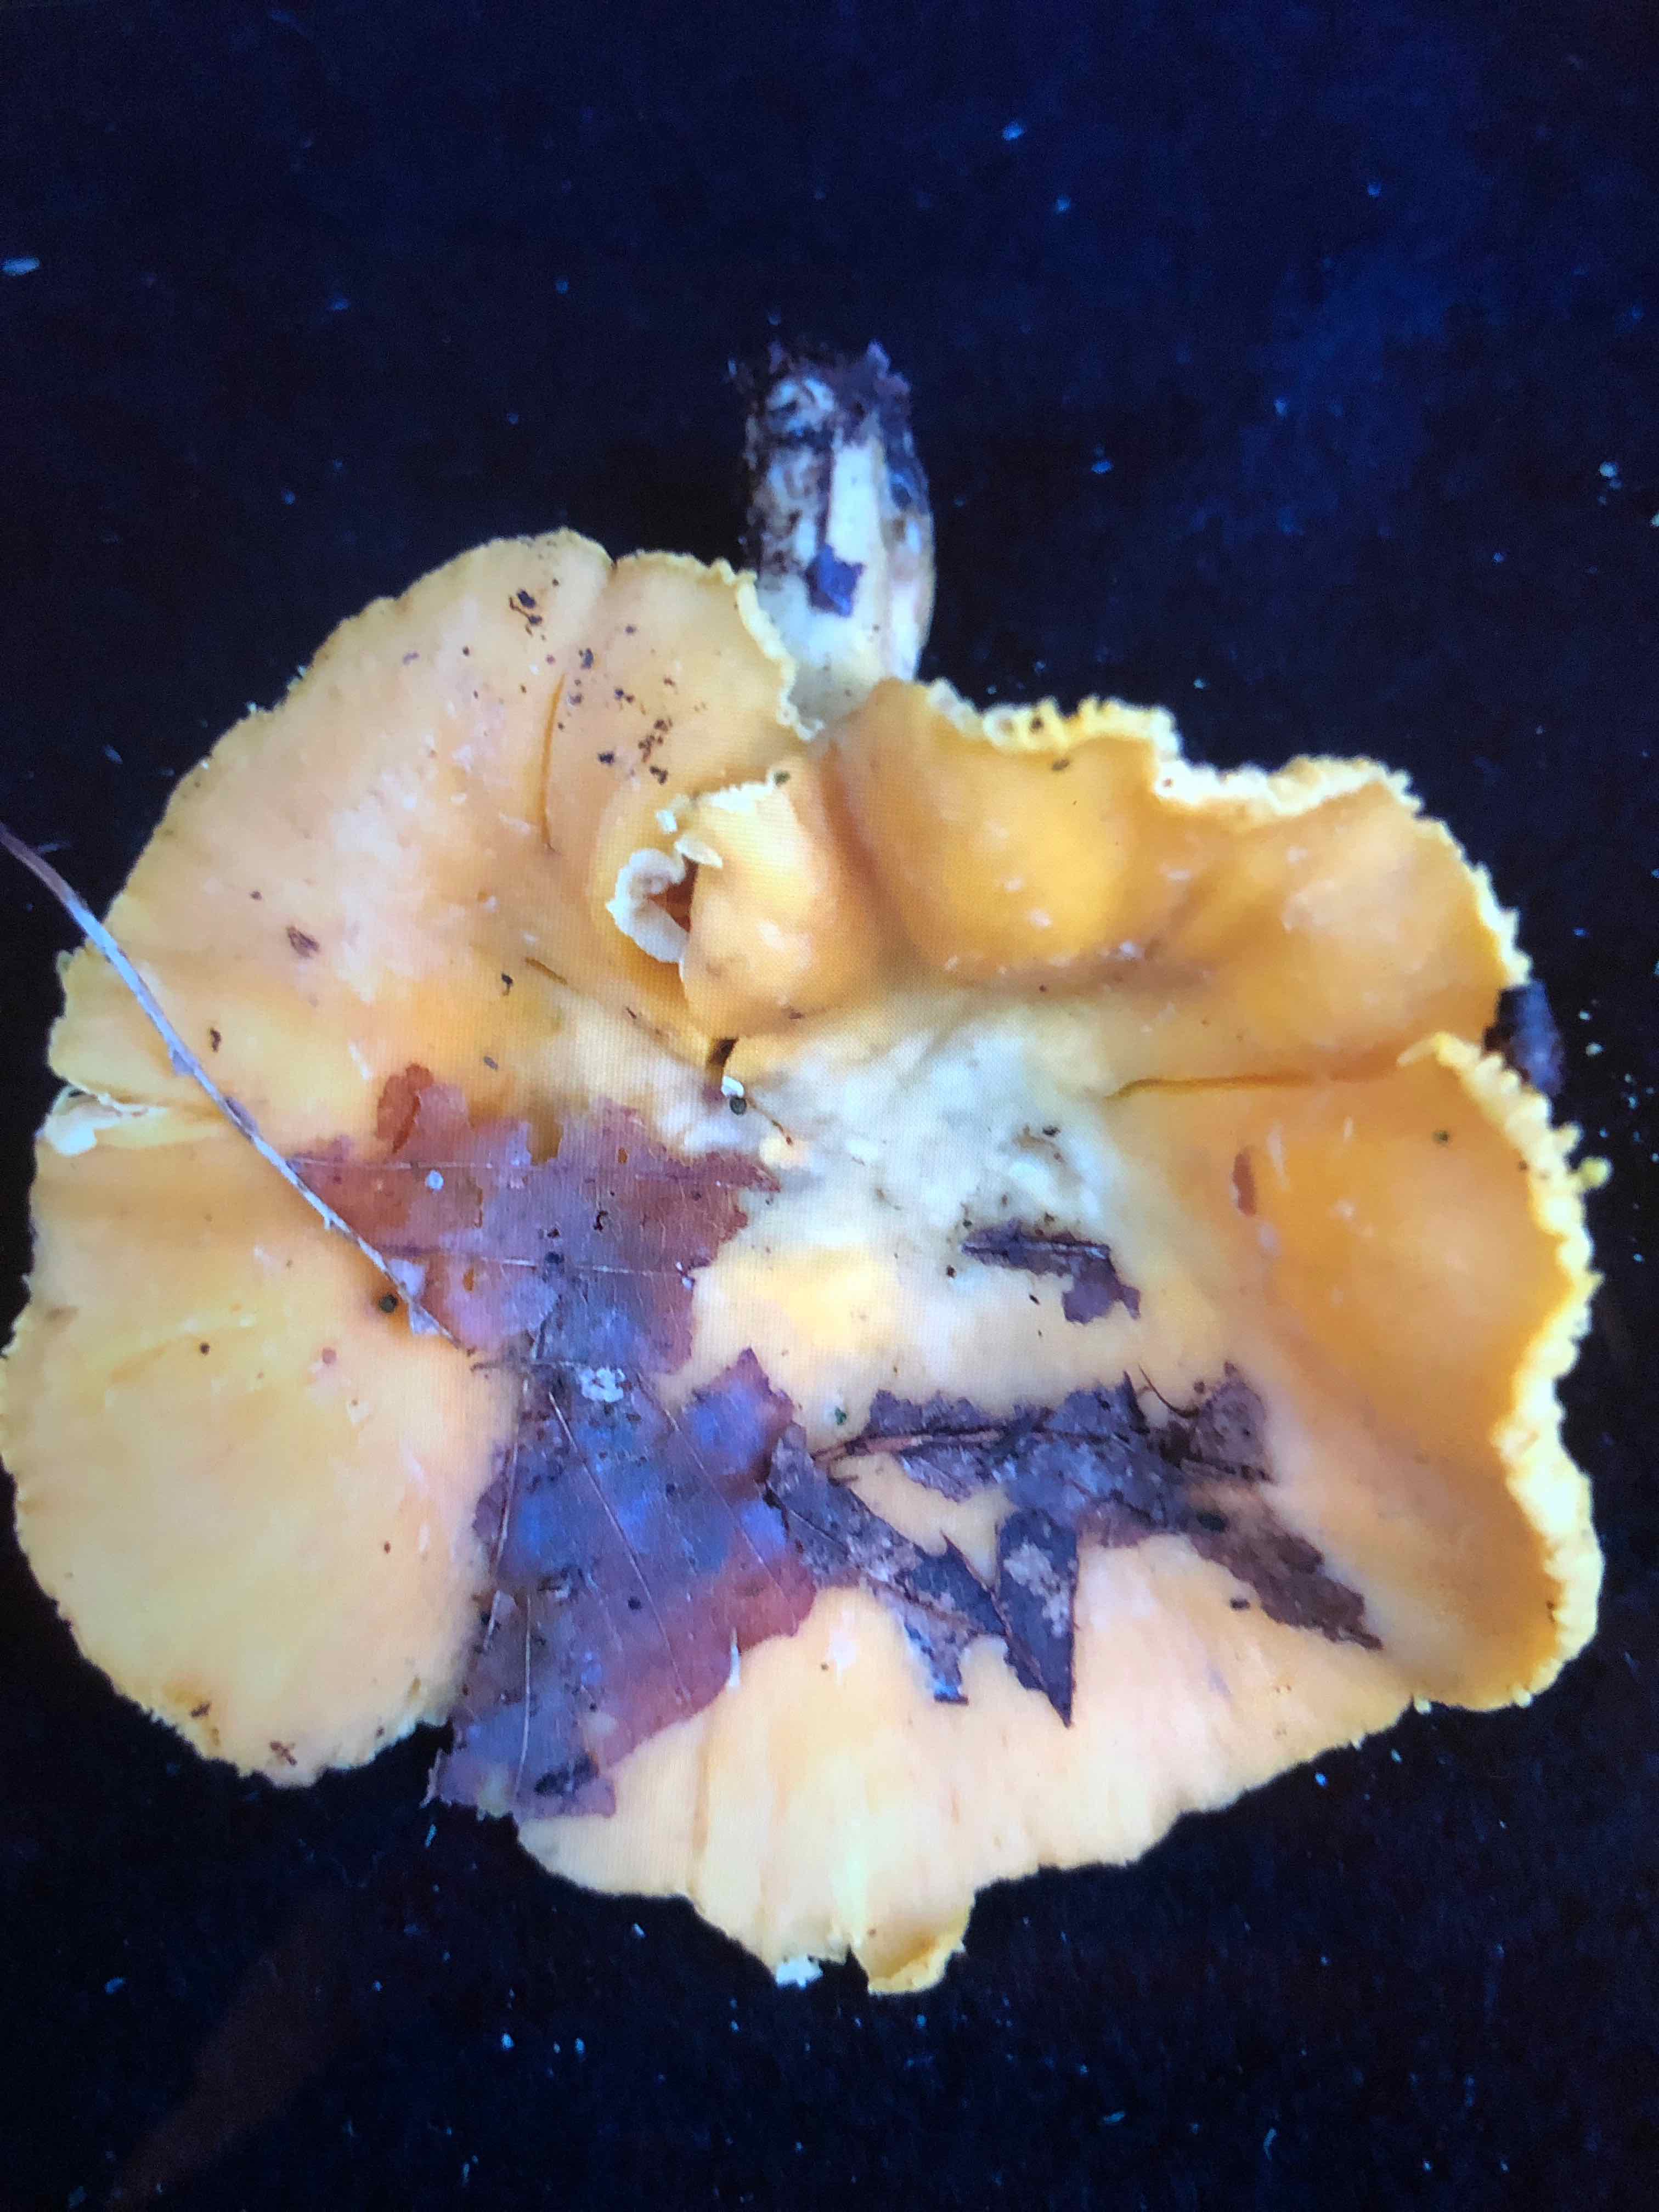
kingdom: Fungi
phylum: Basidiomycota
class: Agaricomycetes
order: Cantharellales
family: Hydnaceae
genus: Cantharellus
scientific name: Cantharellus cibarius
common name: almindelig kantarel
